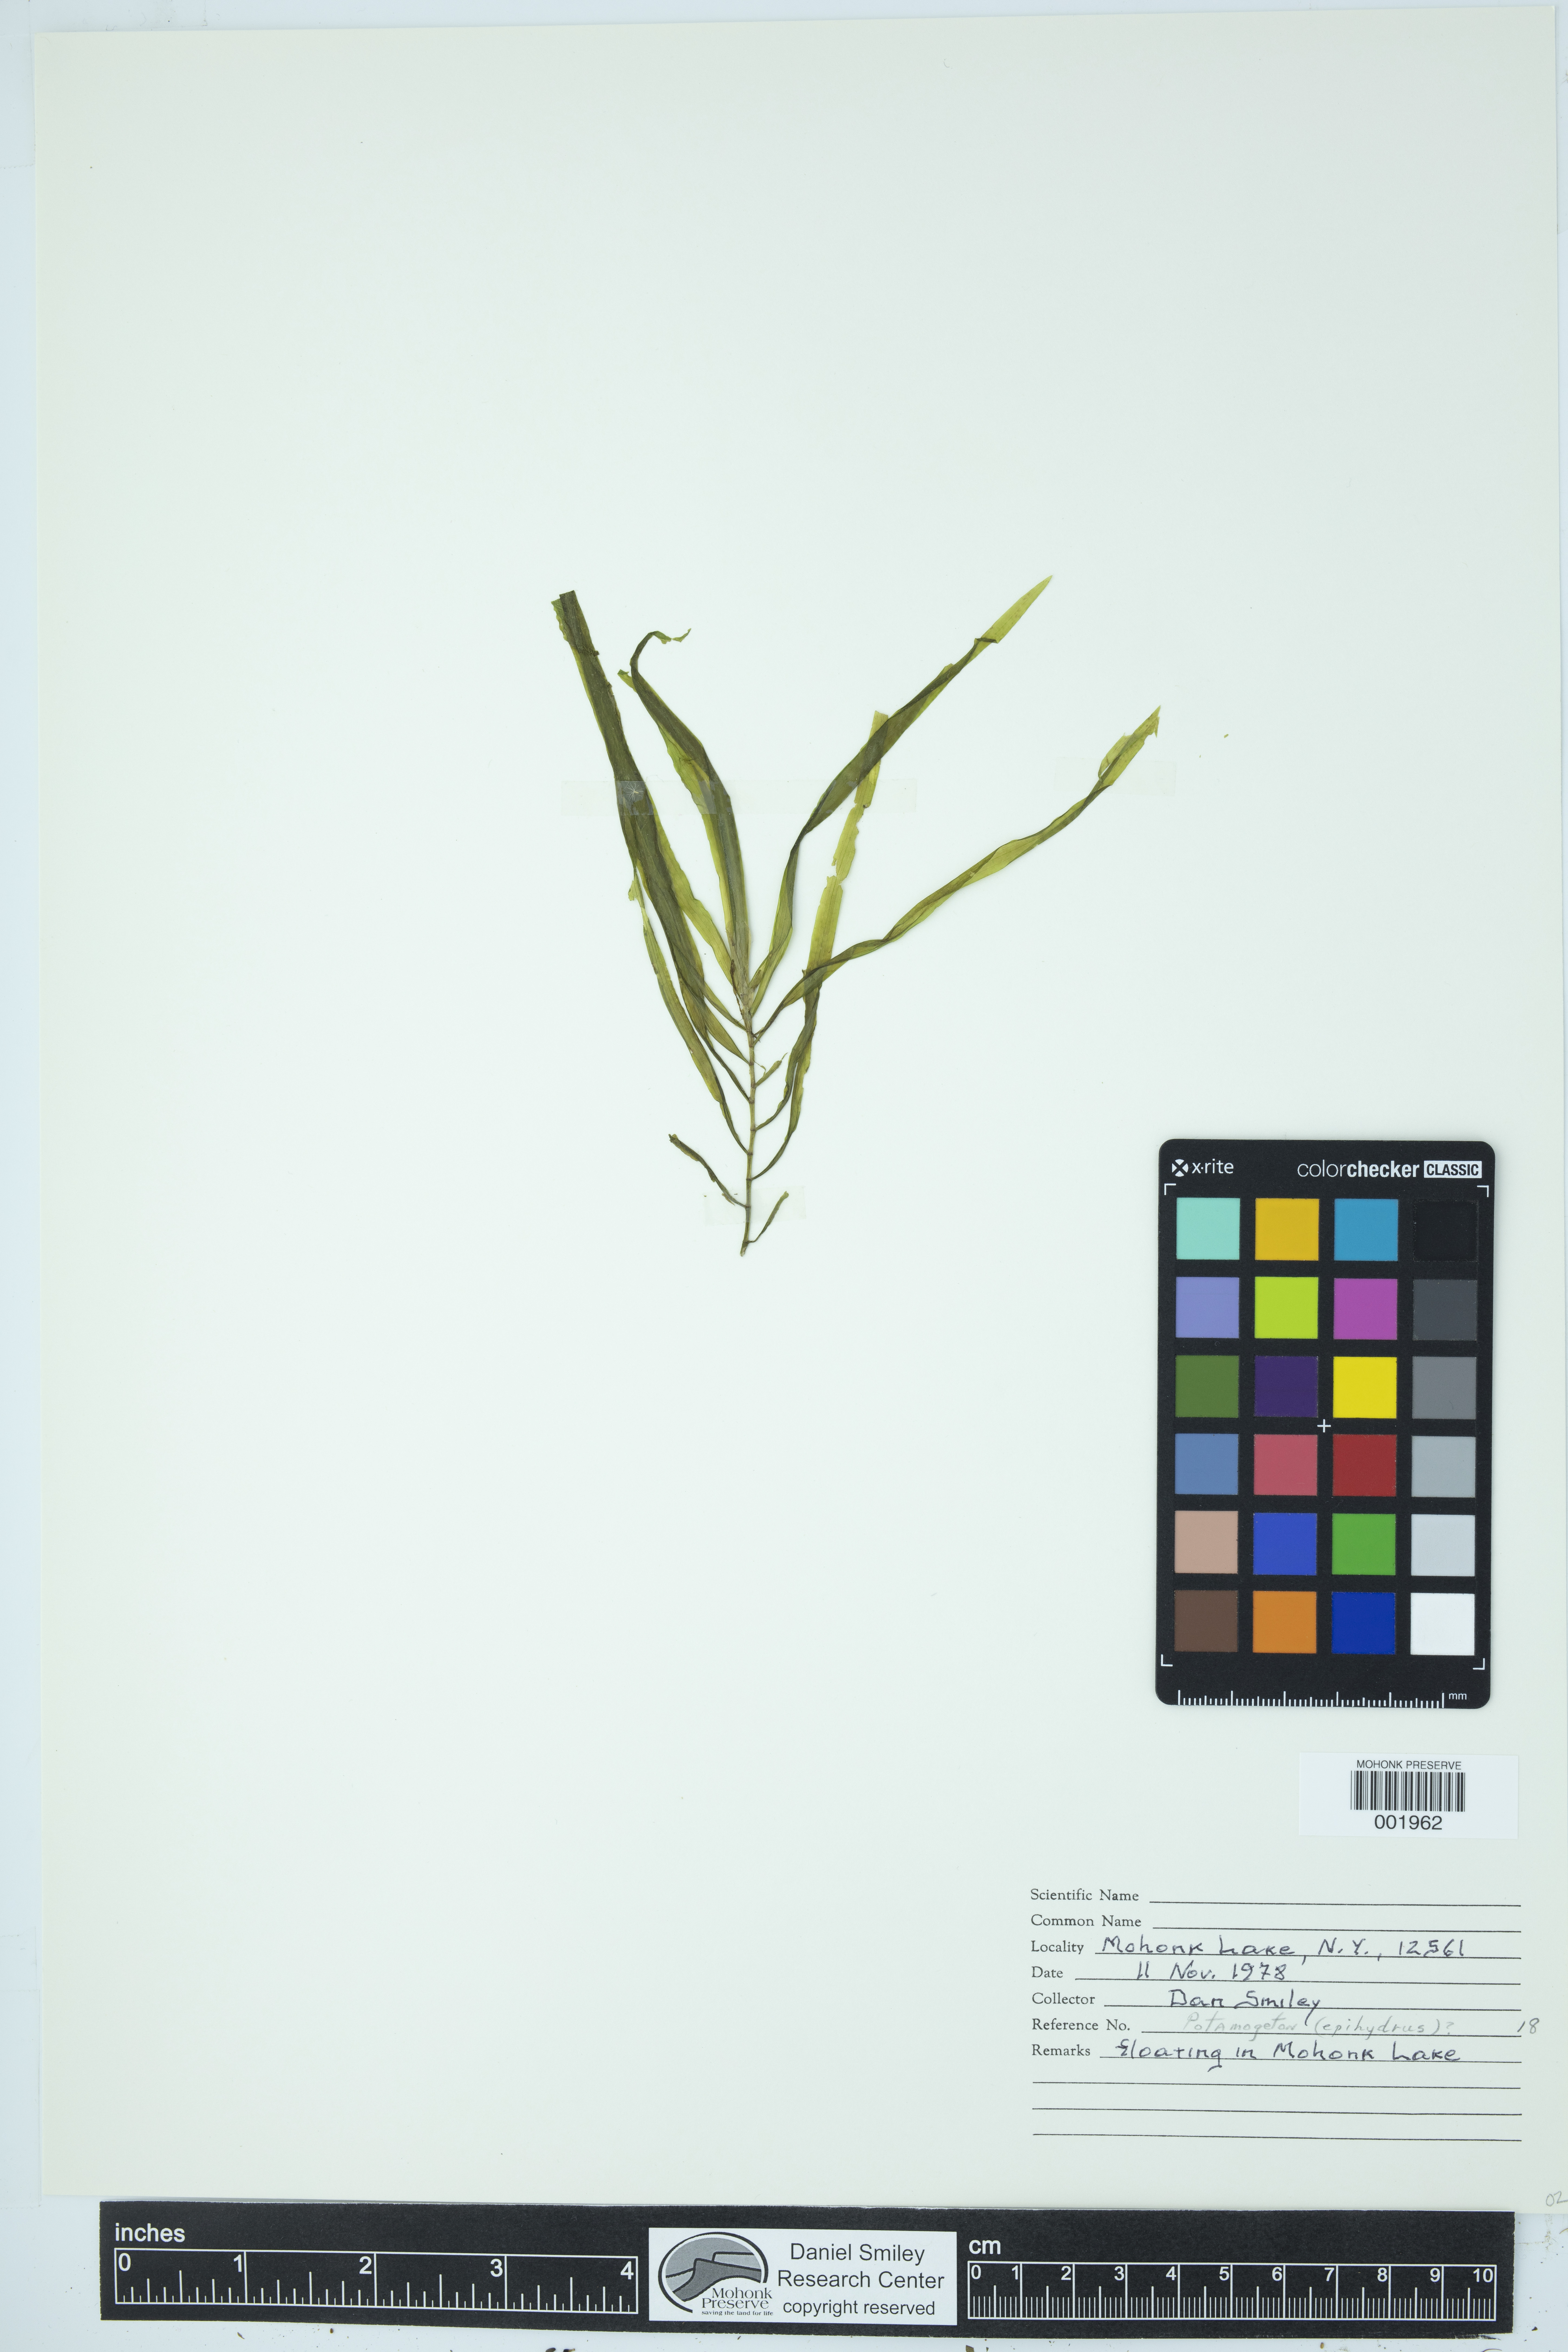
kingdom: Plantae
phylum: Tracheophyta
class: Liliopsida
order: Alismatales
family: Potamogetonaceae
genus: Potamogeton
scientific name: Potamogeton epihydrus
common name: American pondweed
